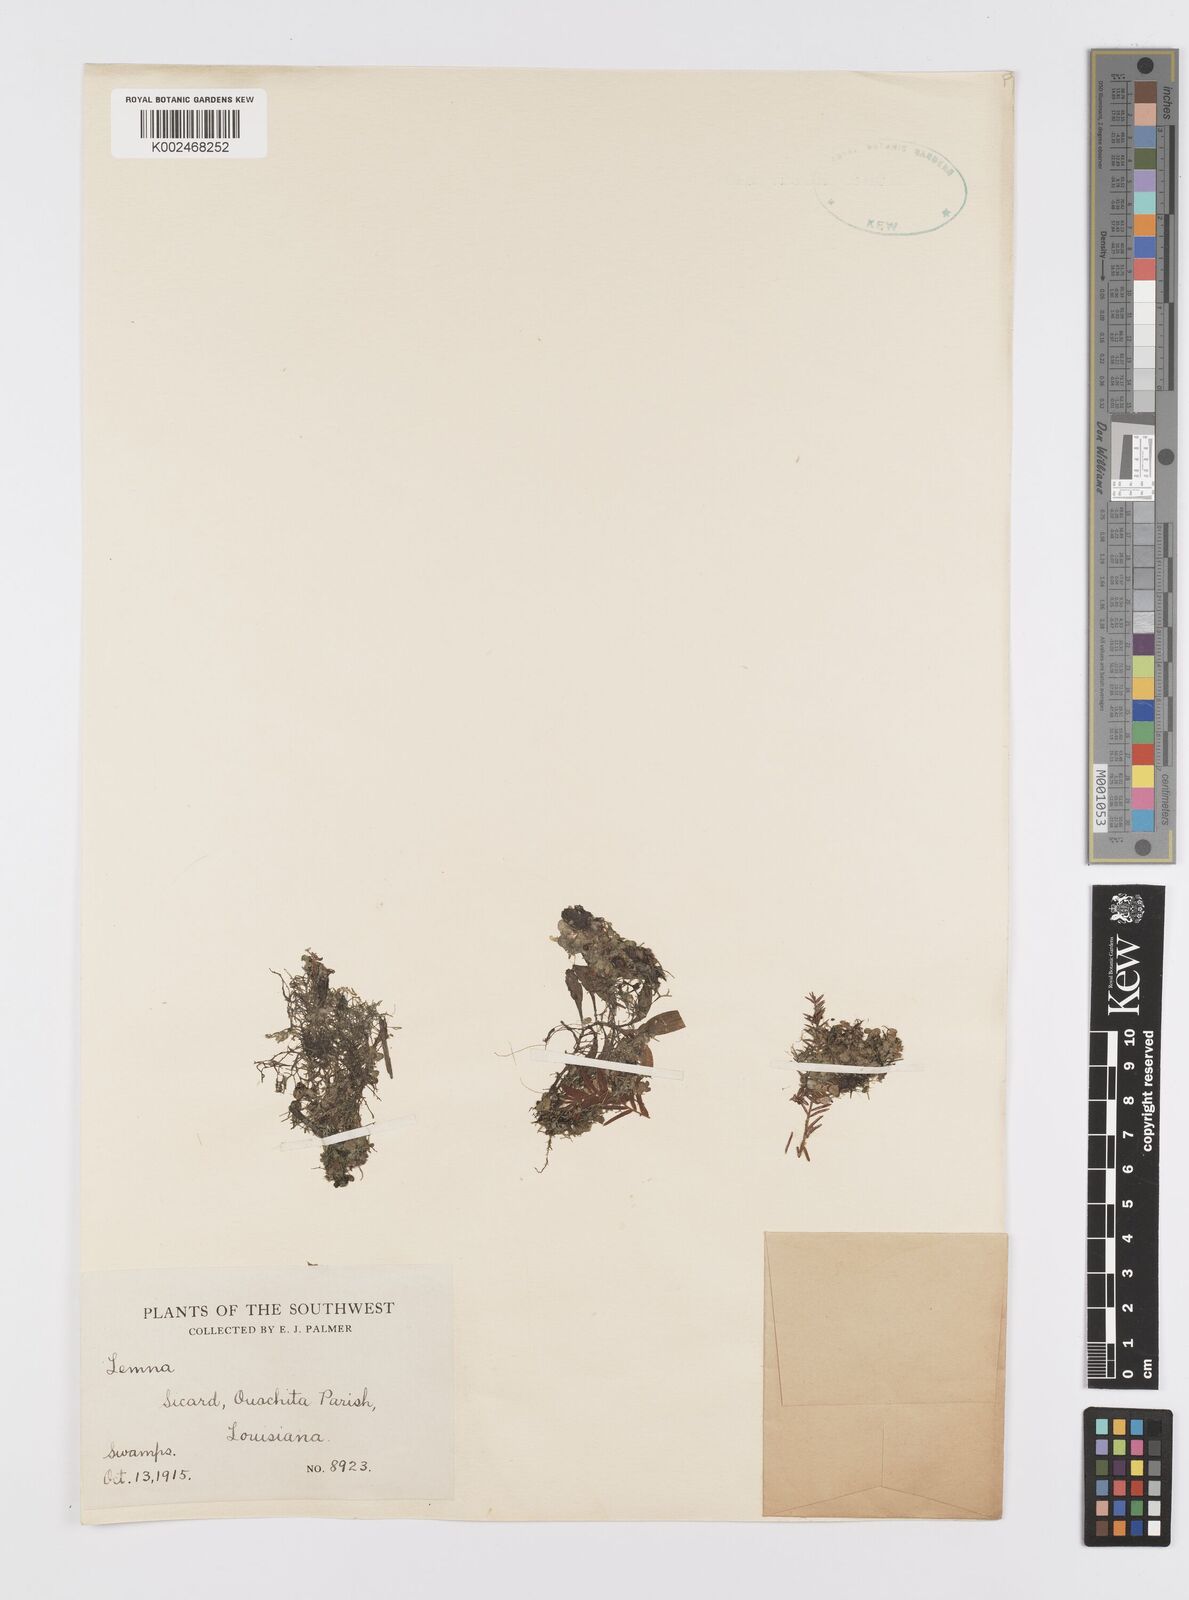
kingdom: Plantae
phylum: Tracheophyta
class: Liliopsida
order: Alismatales
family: Araceae
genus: Lemna
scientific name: Lemna
